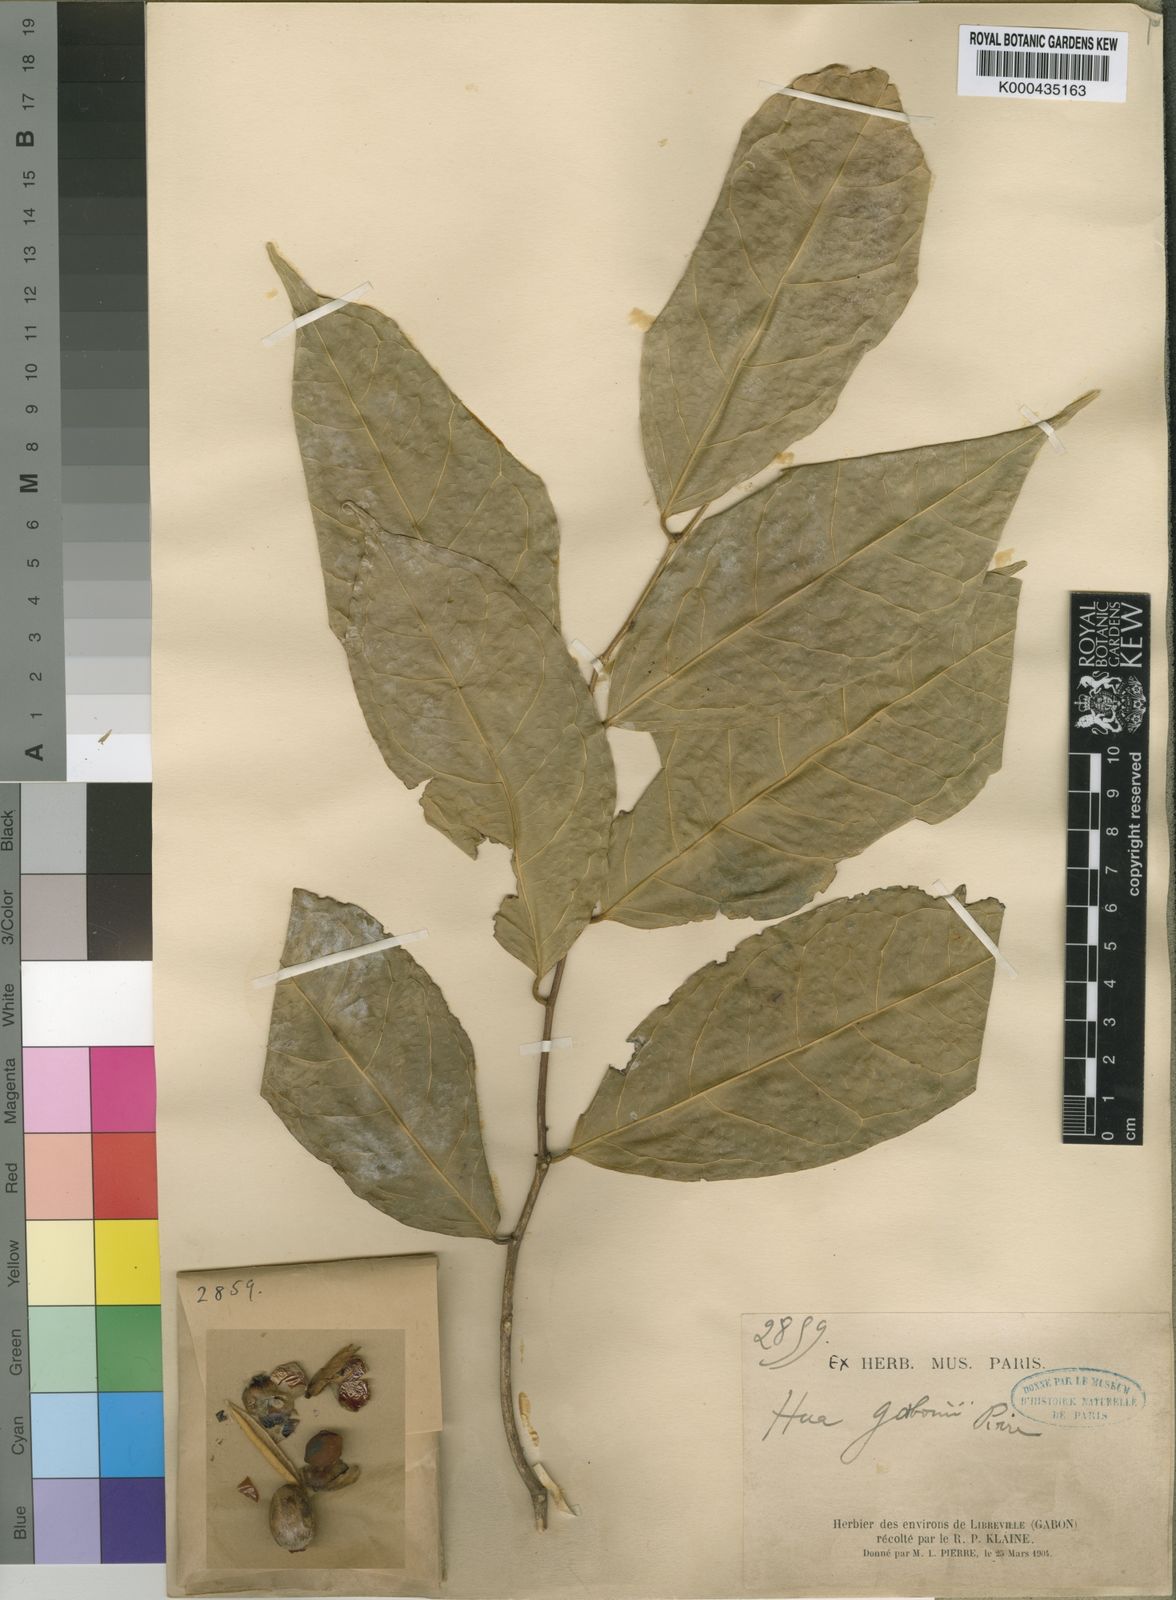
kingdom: Plantae
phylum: Tracheophyta
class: Magnoliopsida
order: Oxalidales
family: Huaceae
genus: Hua
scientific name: Hua gaboni
